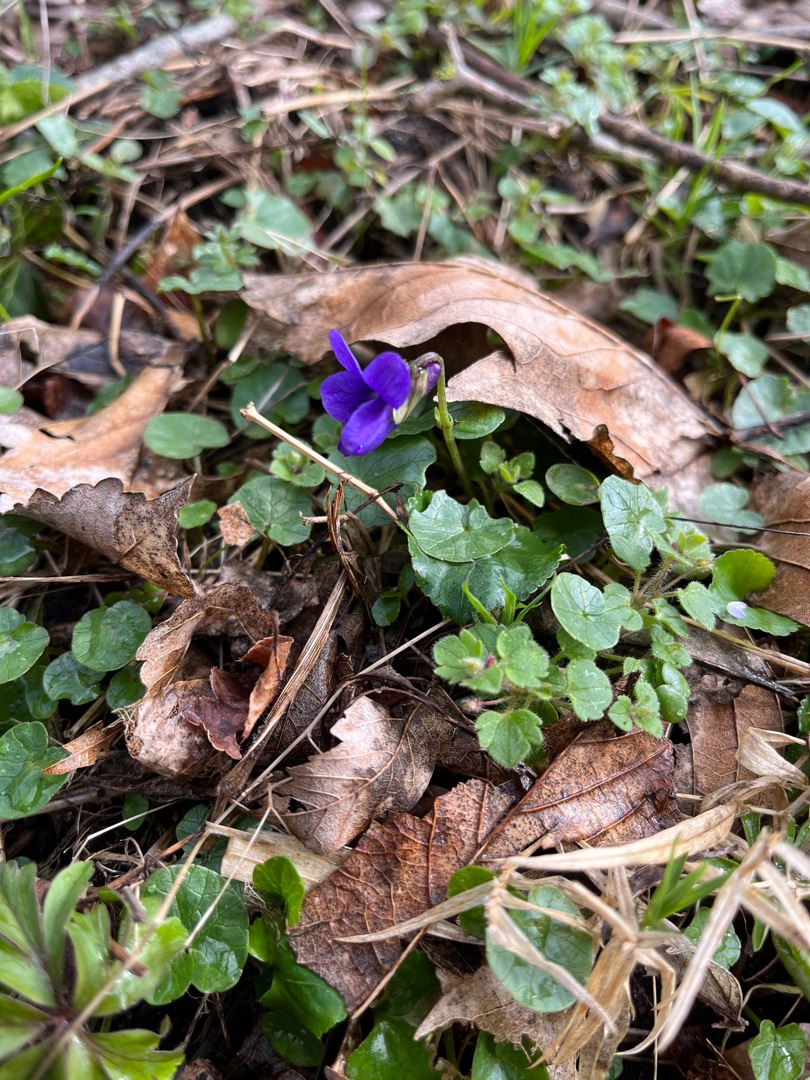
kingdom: Plantae
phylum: Tracheophyta
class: Magnoliopsida
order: Malpighiales
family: Violaceae
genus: Viola
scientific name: Viola odorata
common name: Marts-viol
